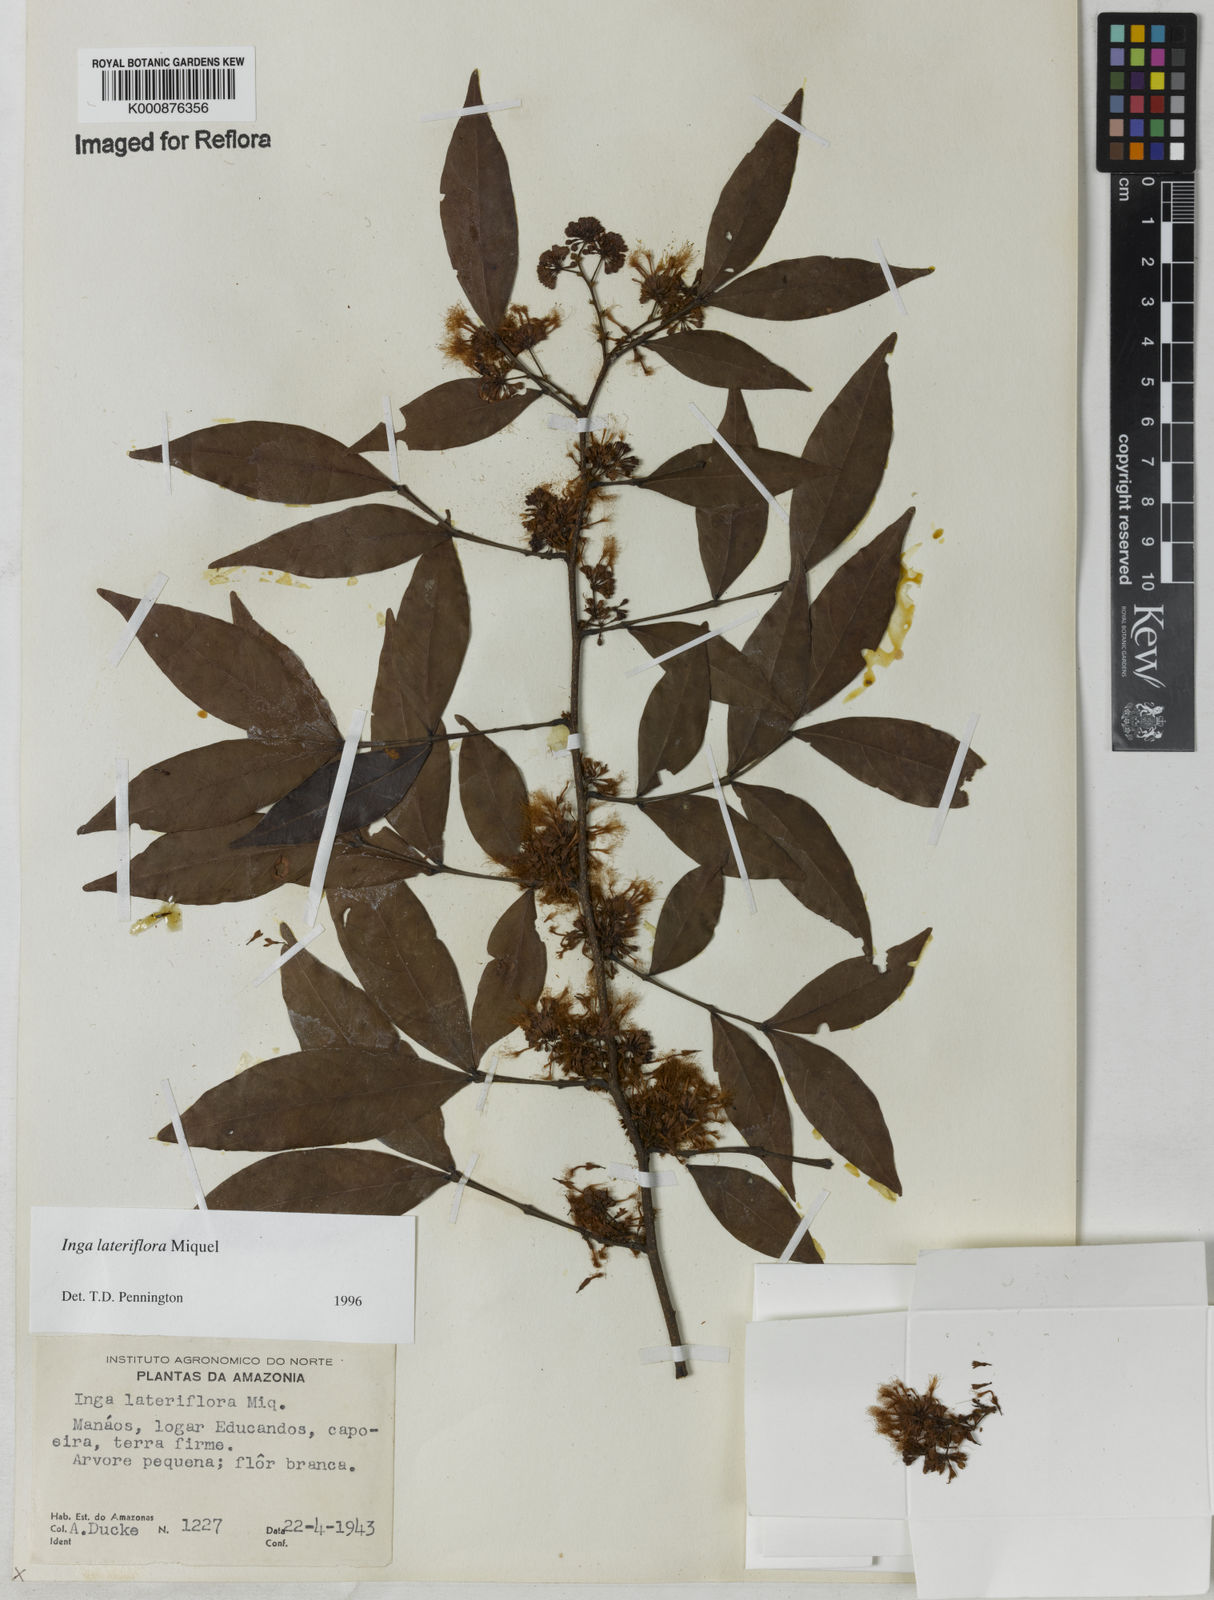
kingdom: Plantae
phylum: Tracheophyta
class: Magnoliopsida
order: Fabales
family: Fabaceae
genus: Inga
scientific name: Inga lateriflora
